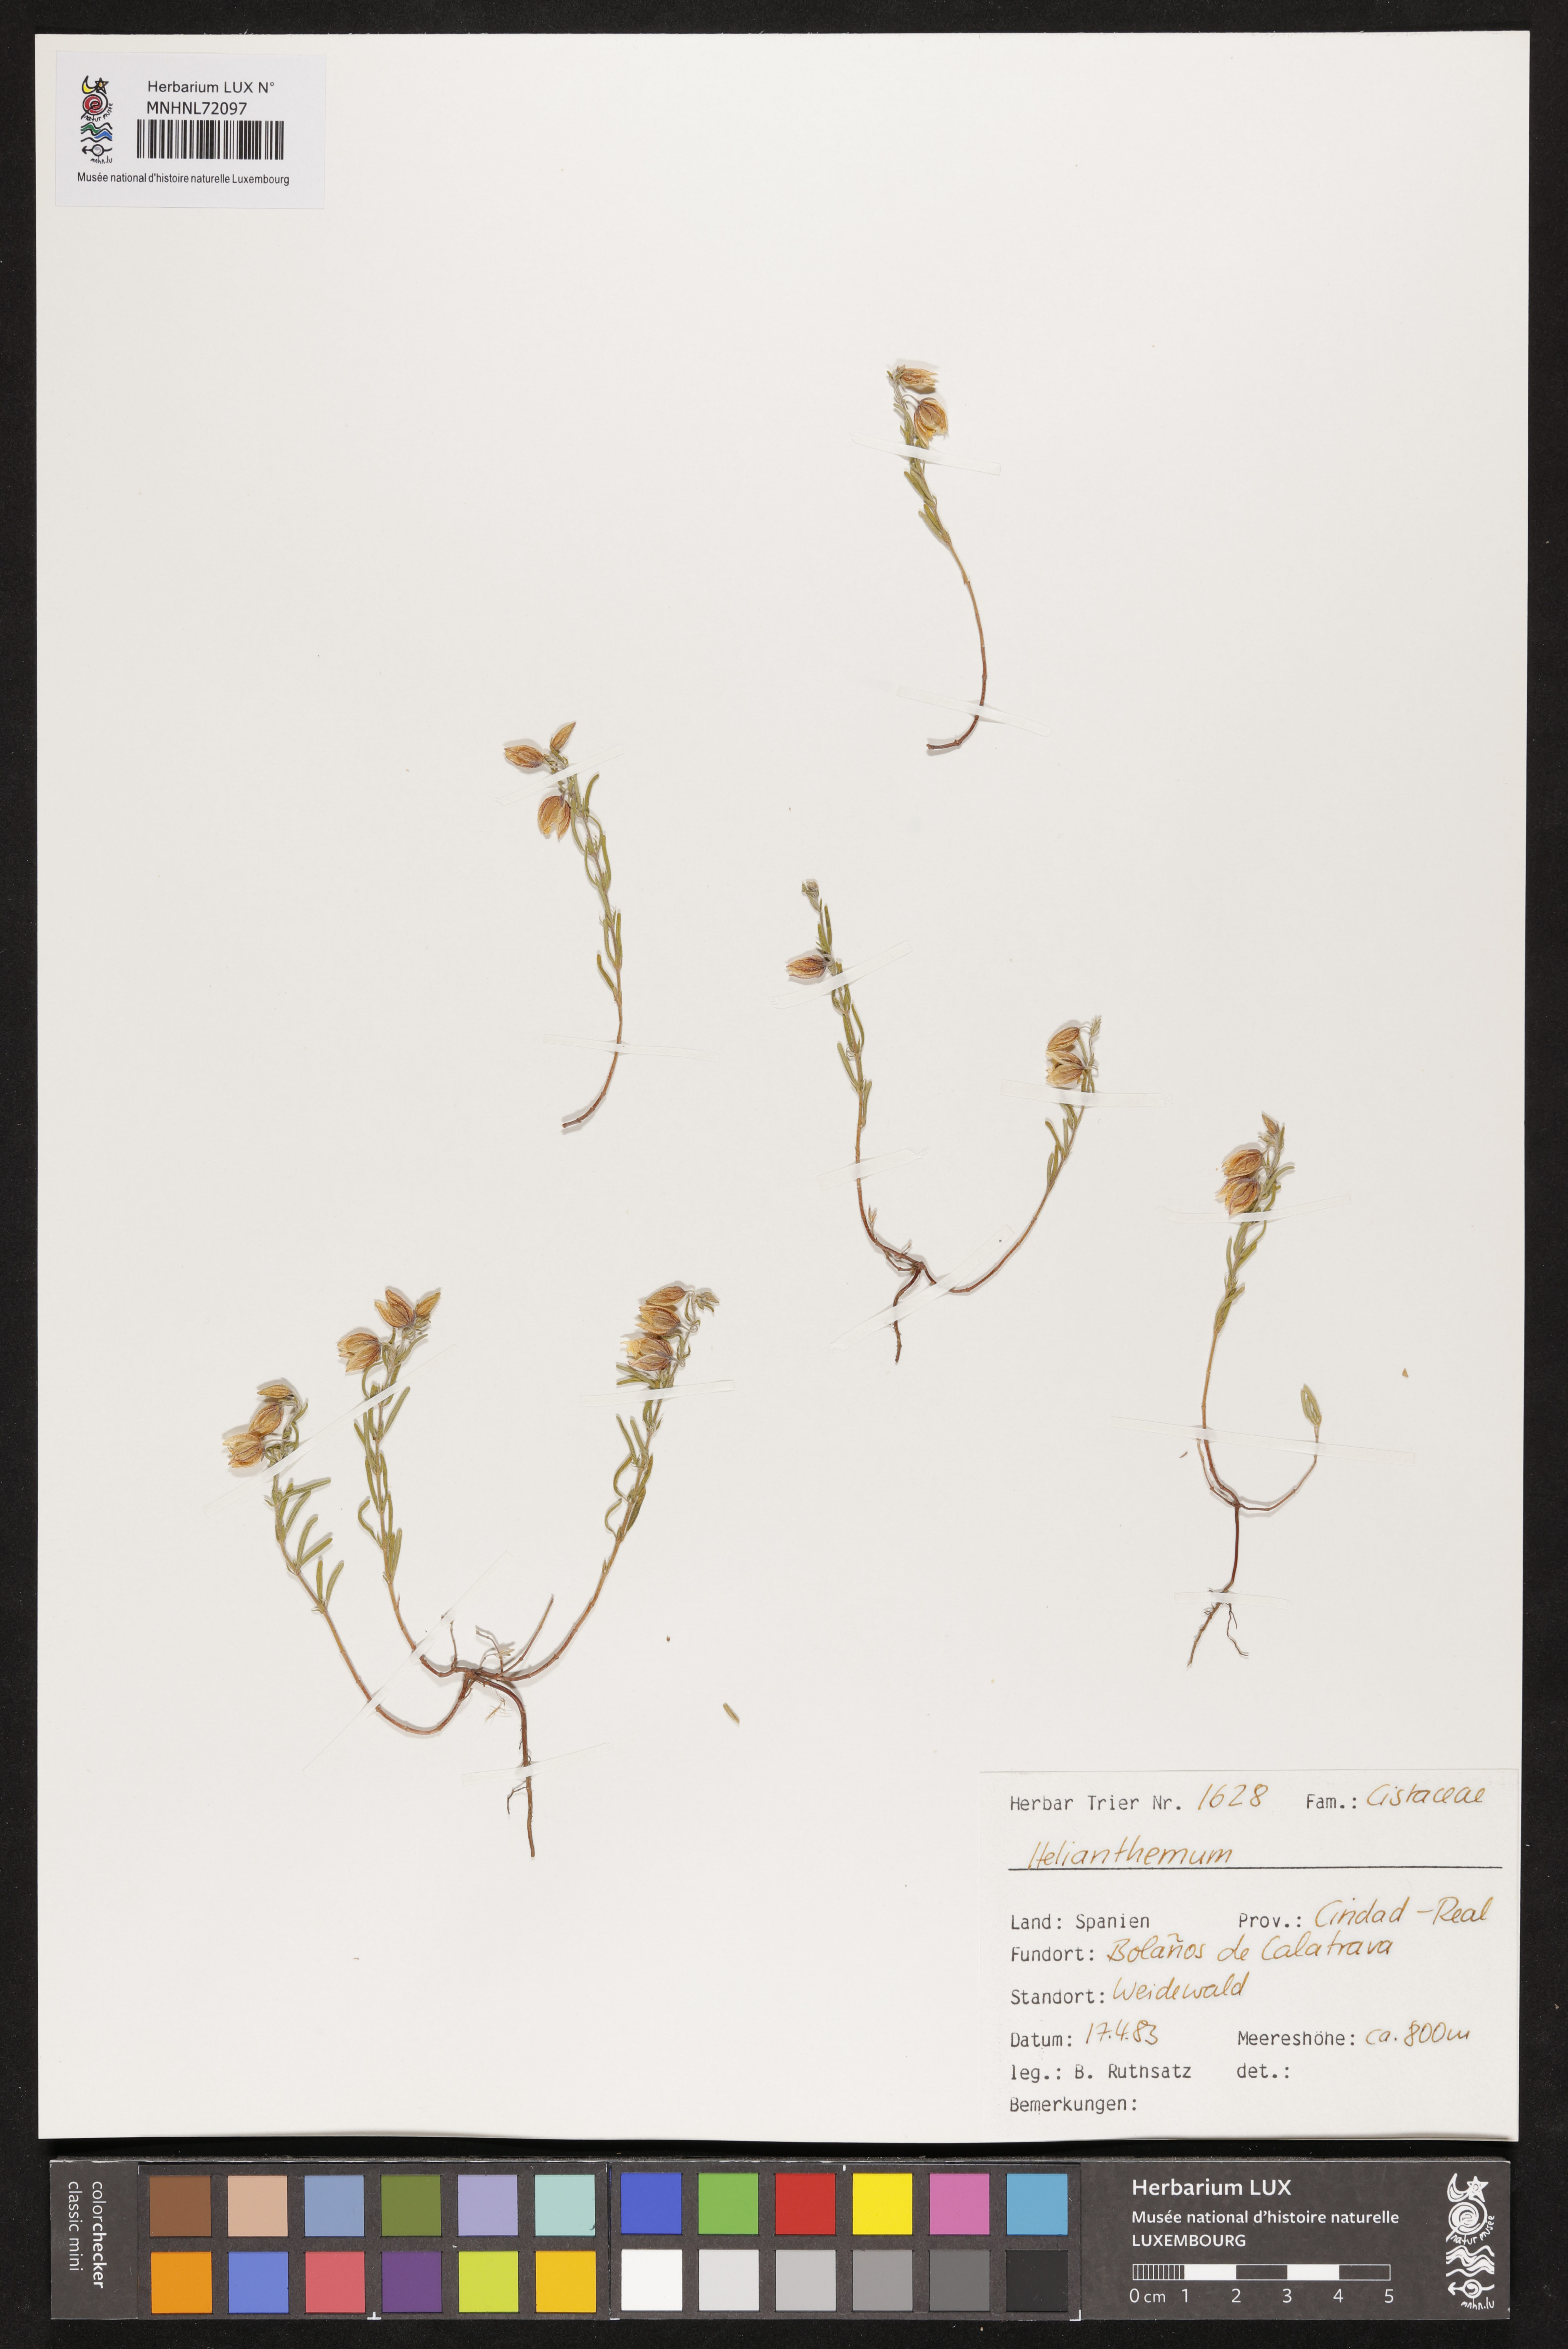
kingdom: Plantae
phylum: Tracheophyta
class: Magnoliopsida
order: Malvales
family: Cistaceae
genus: Helianthemum
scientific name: Helianthemum
